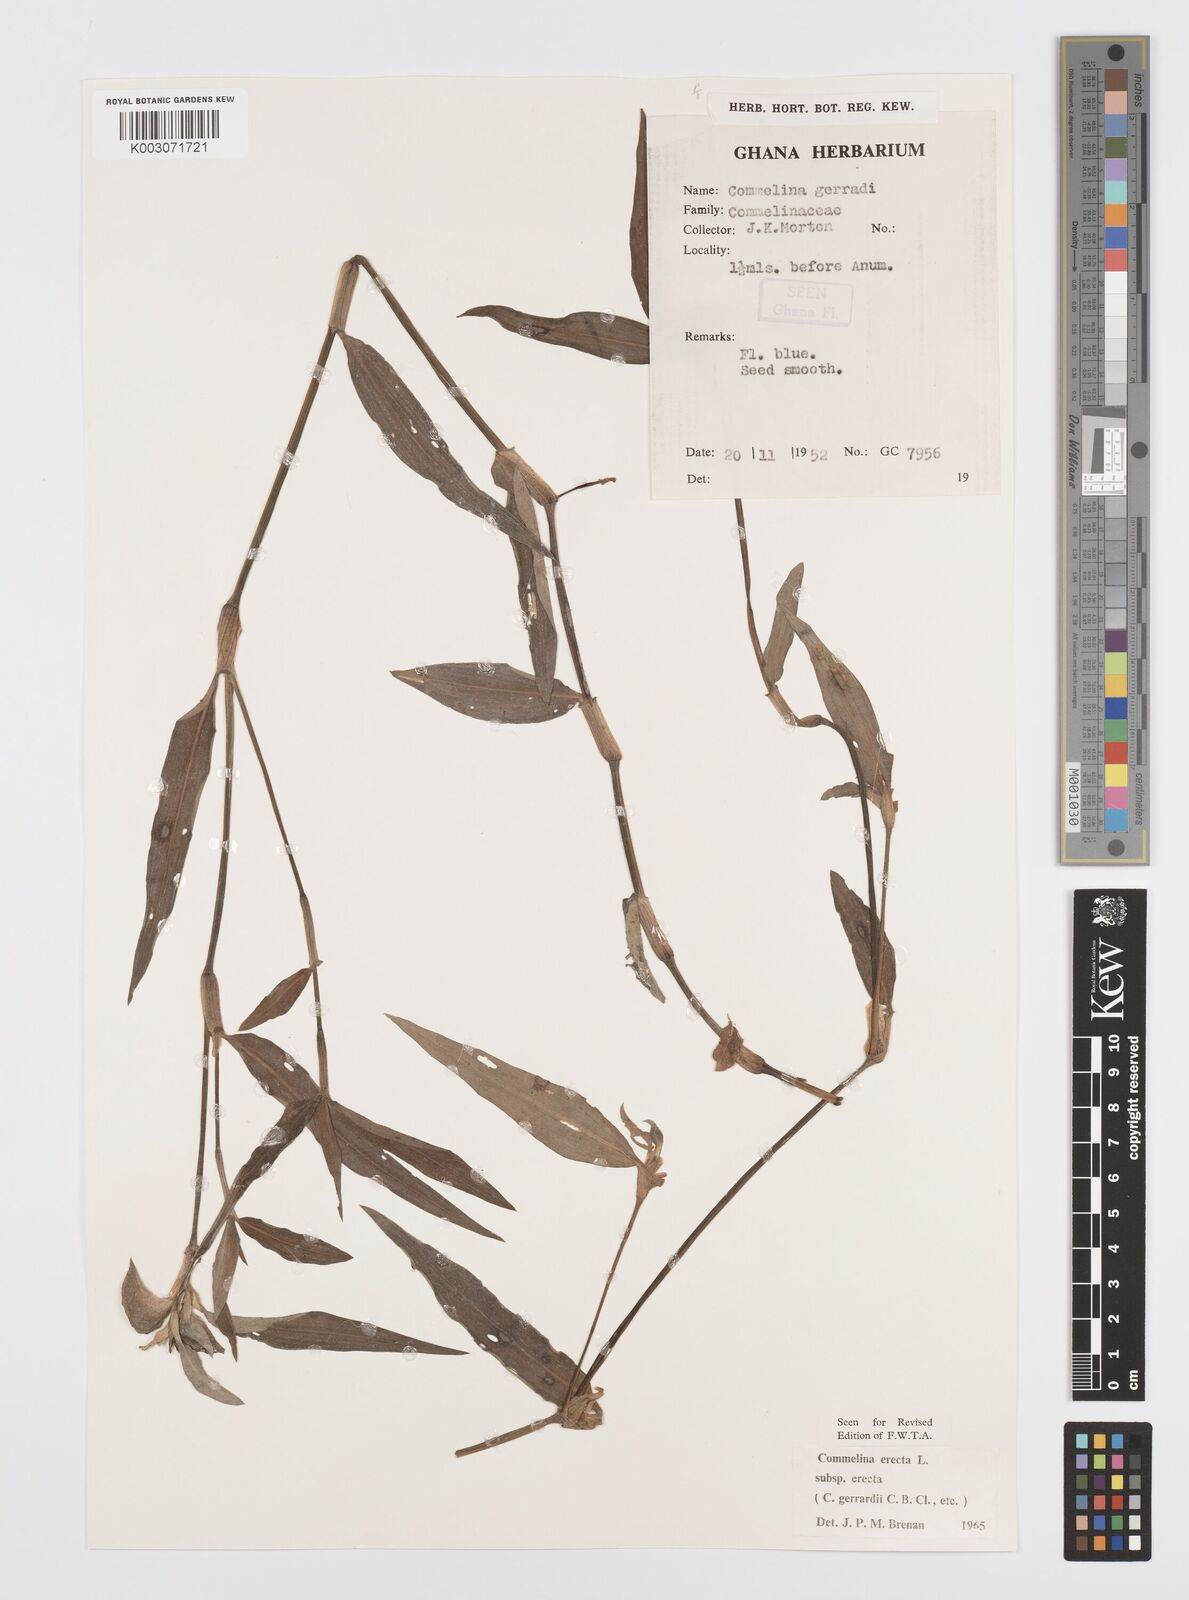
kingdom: Plantae
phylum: Tracheophyta
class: Liliopsida
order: Commelinales
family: Commelinaceae
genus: Commelina
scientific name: Commelina erecta
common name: Blousel blommetjie
